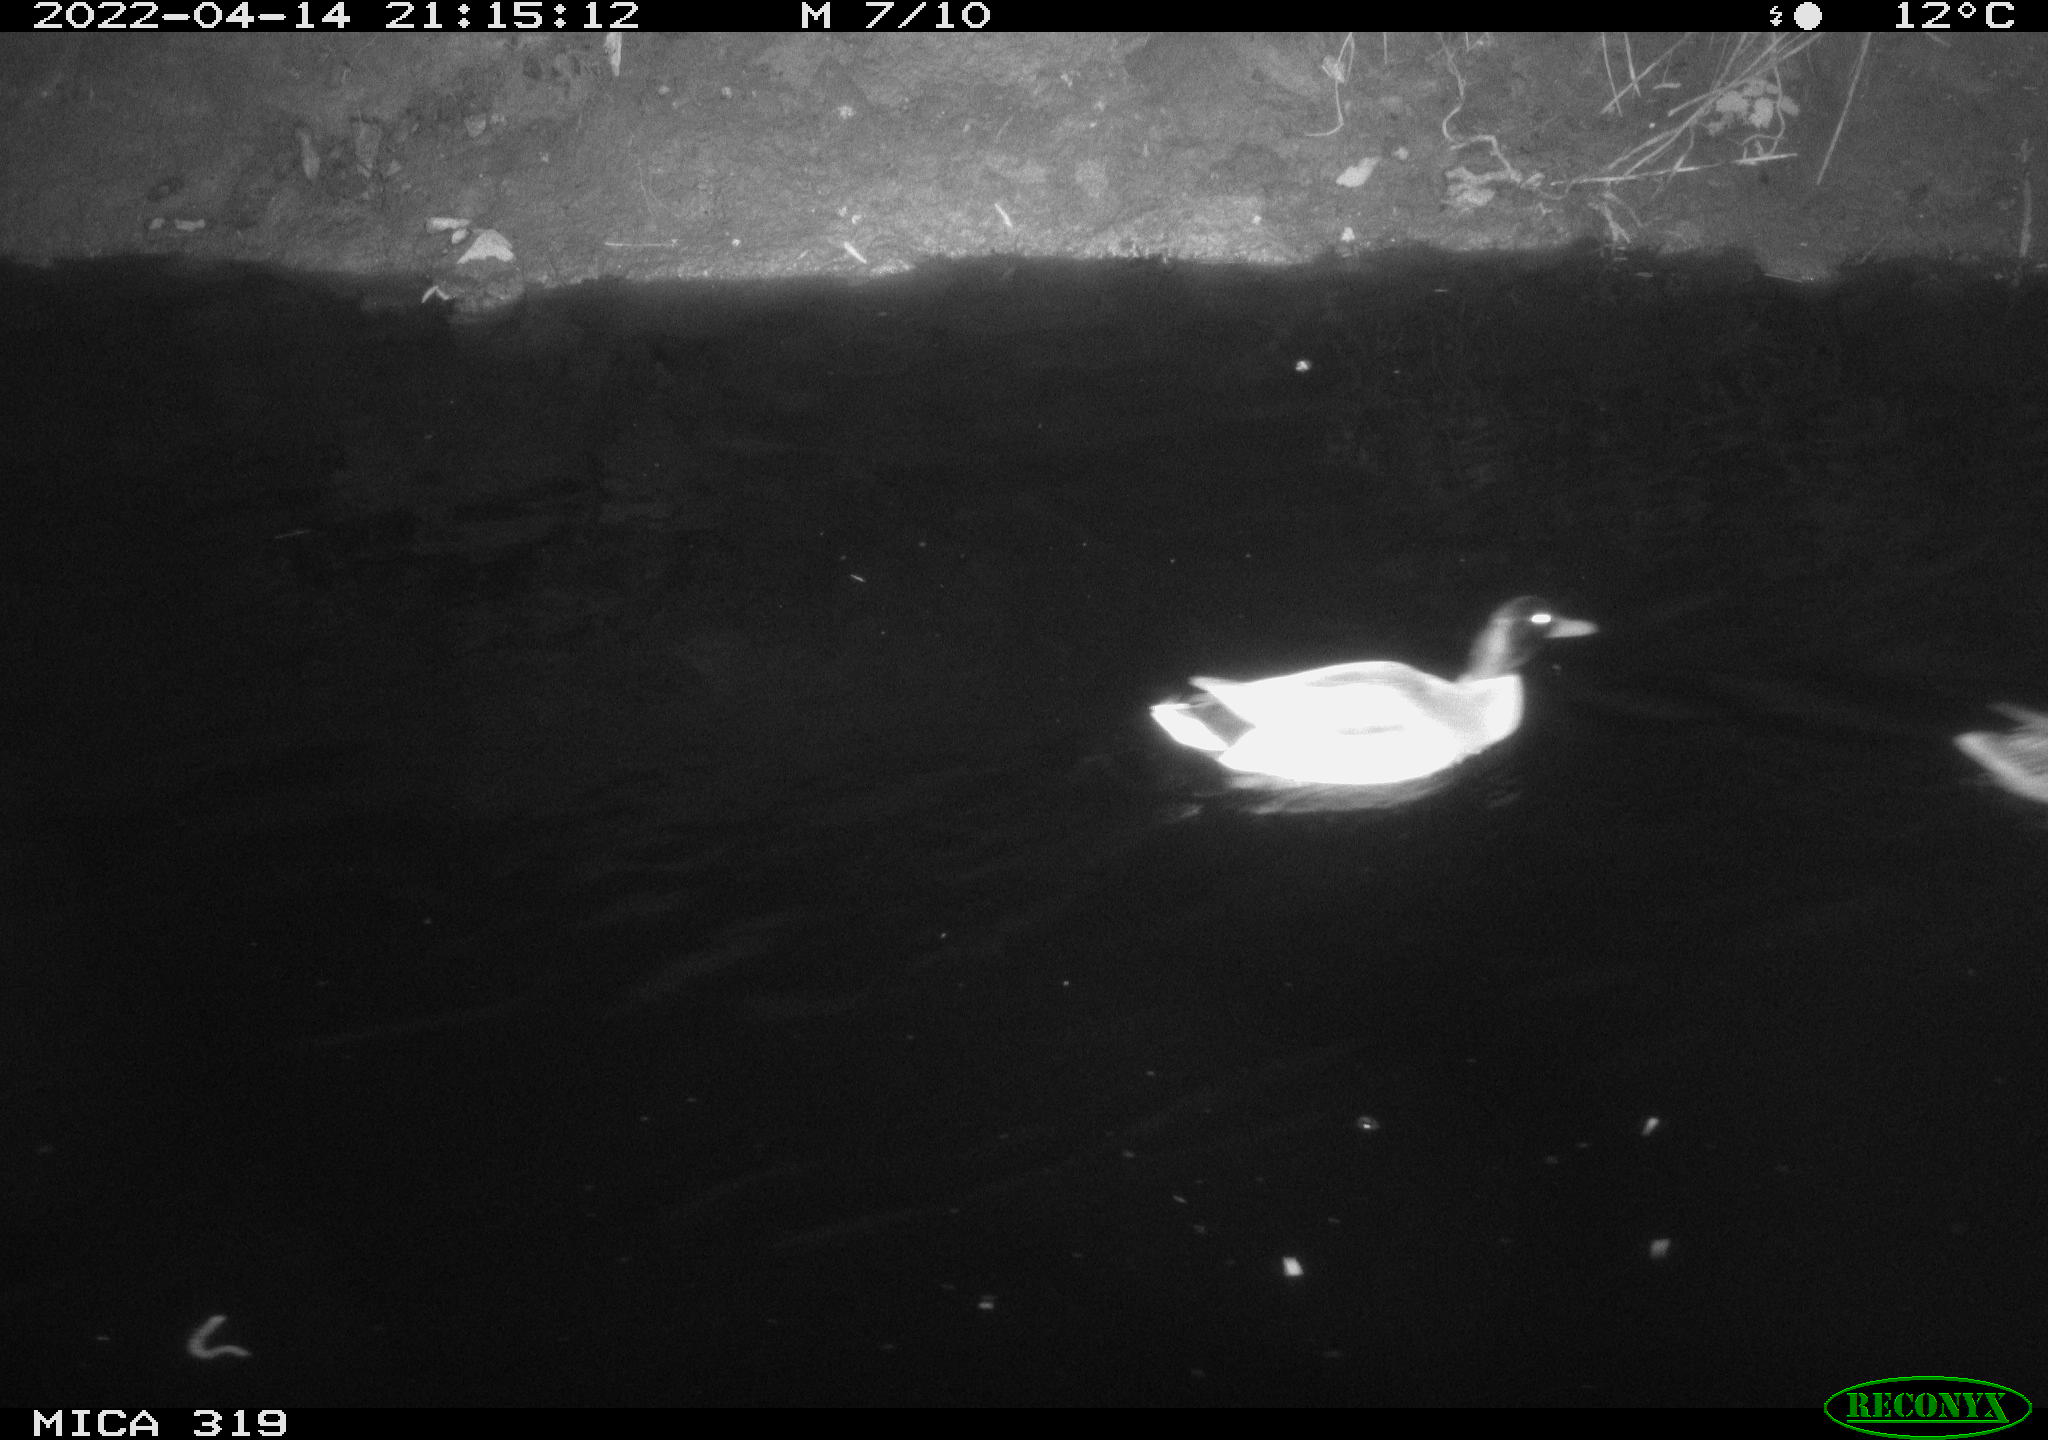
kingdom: Animalia
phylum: Chordata
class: Aves
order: Anseriformes
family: Anatidae
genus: Anas
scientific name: Anas platyrhynchos
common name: Mallard
